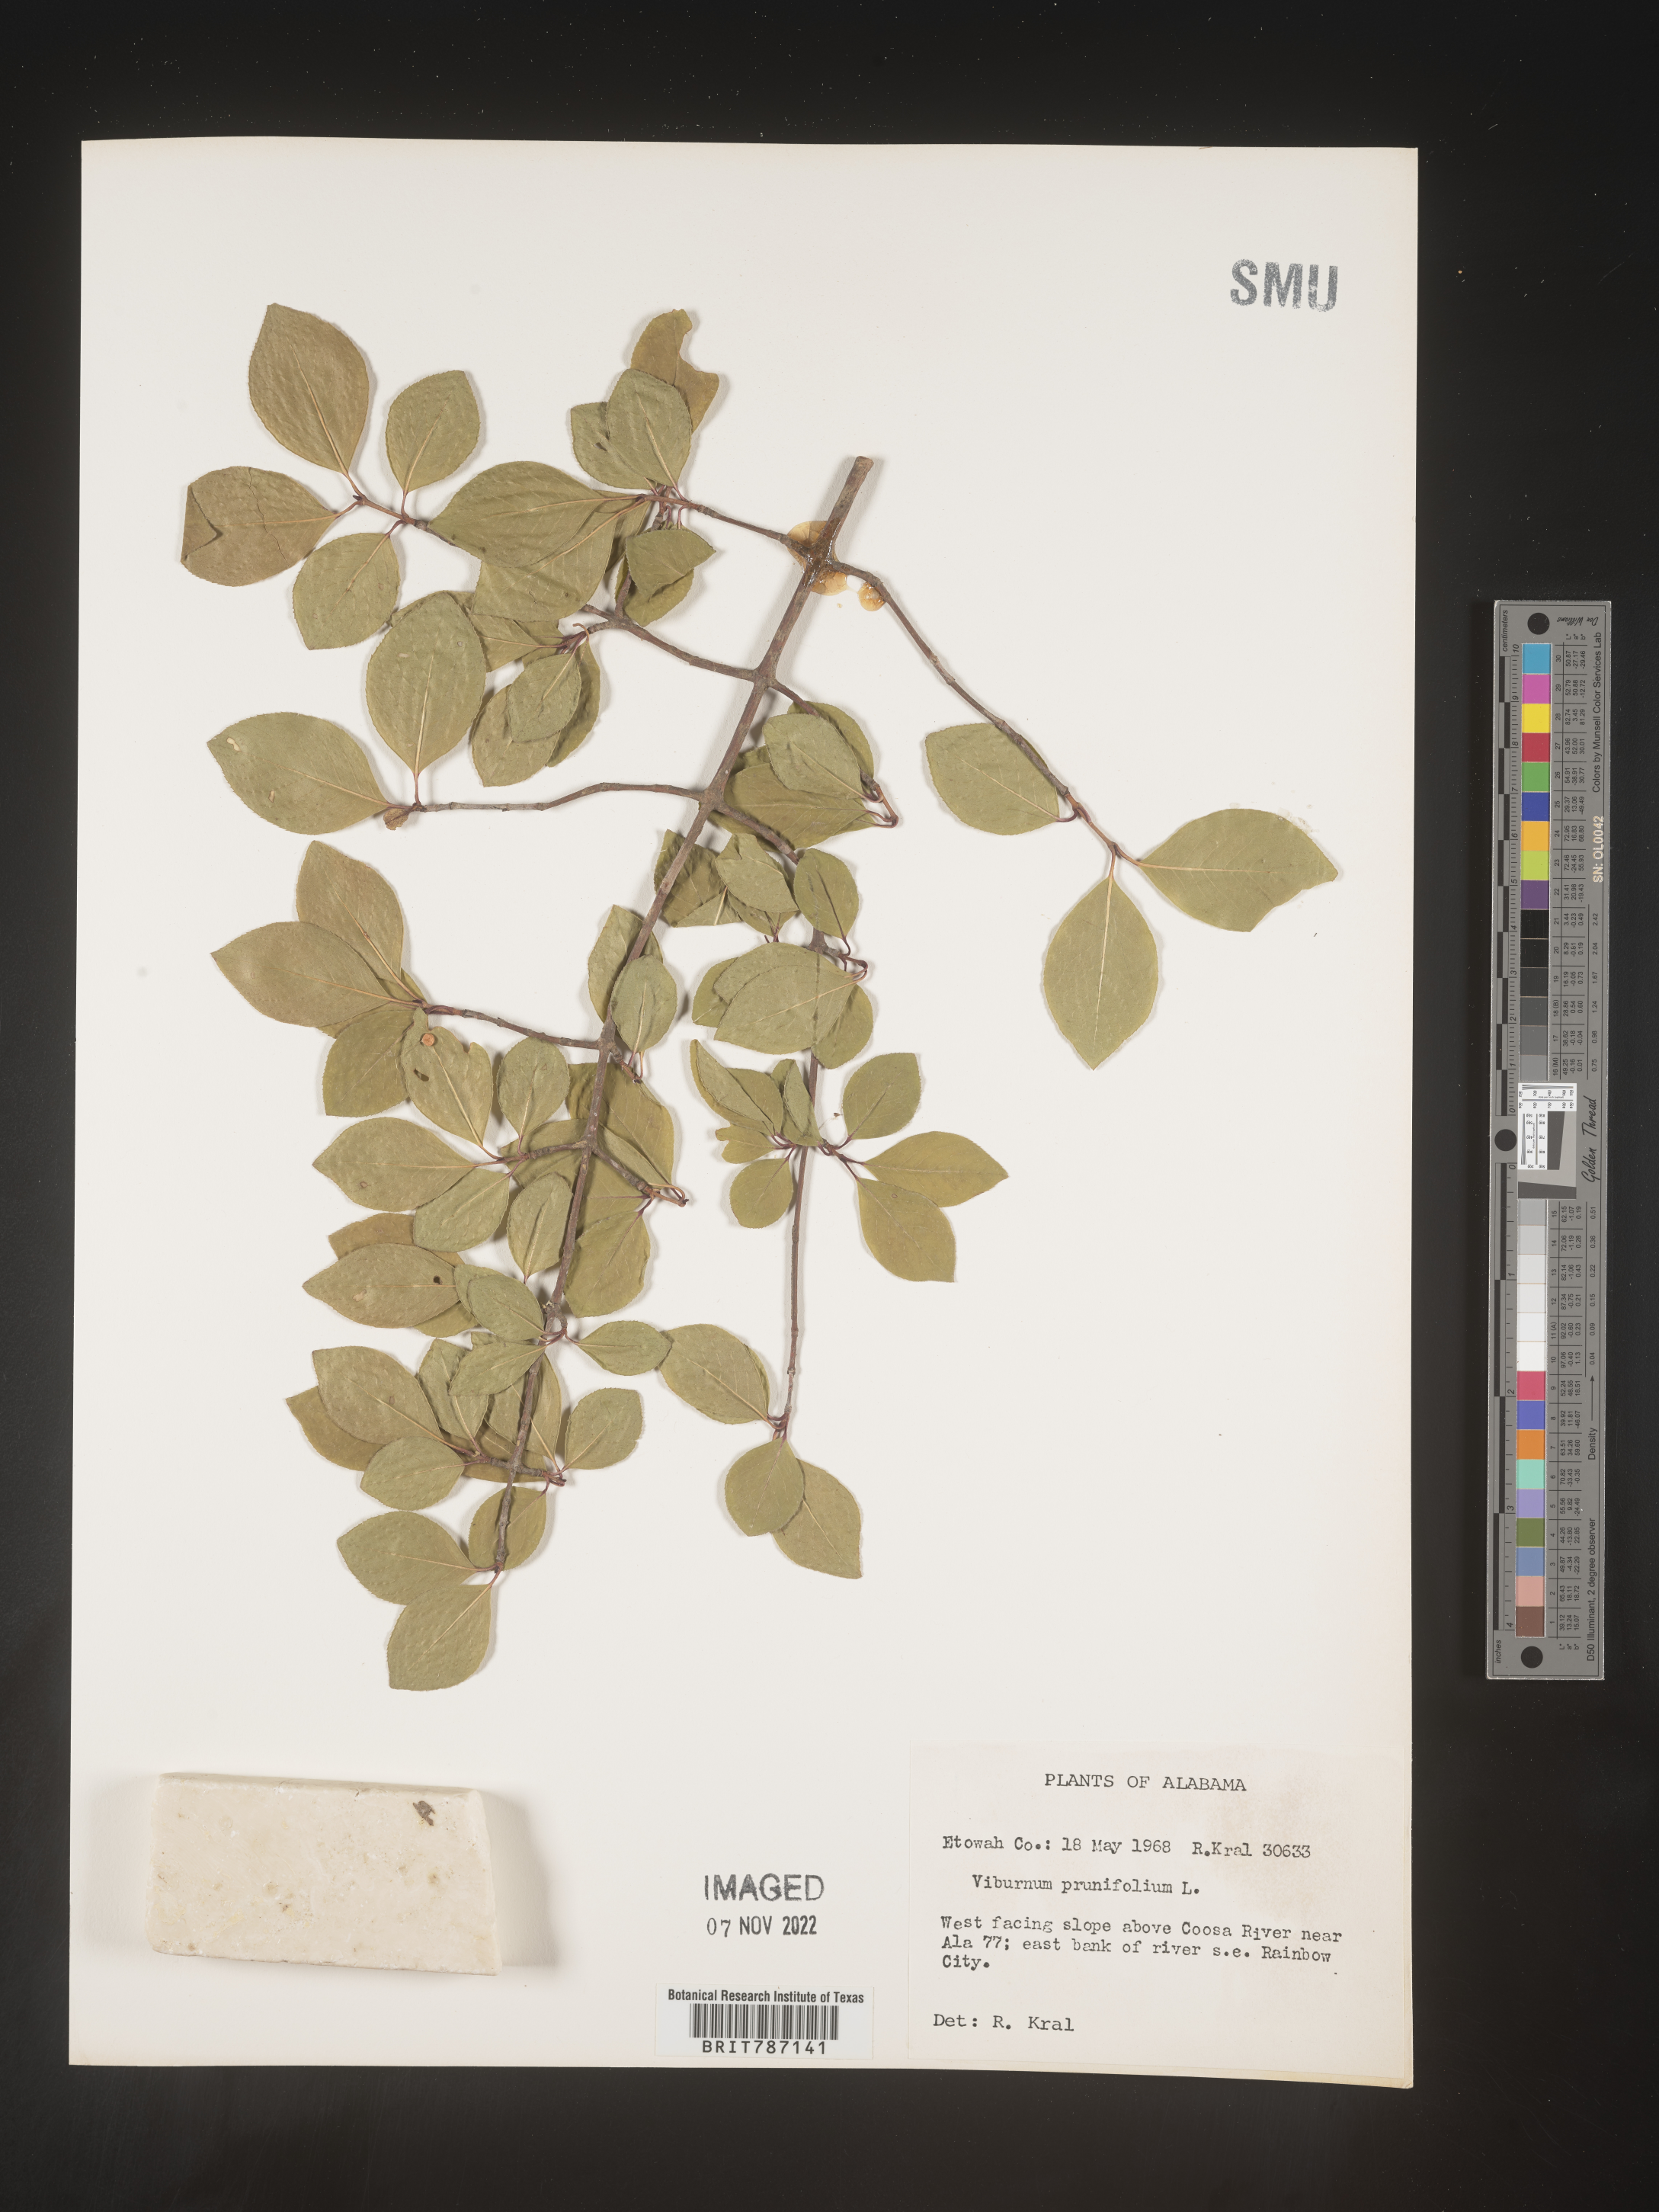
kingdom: Plantae
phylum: Tracheophyta
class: Magnoliopsida
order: Dipsacales
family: Viburnaceae
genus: Viburnum
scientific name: Viburnum prunifolium
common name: Black haw
